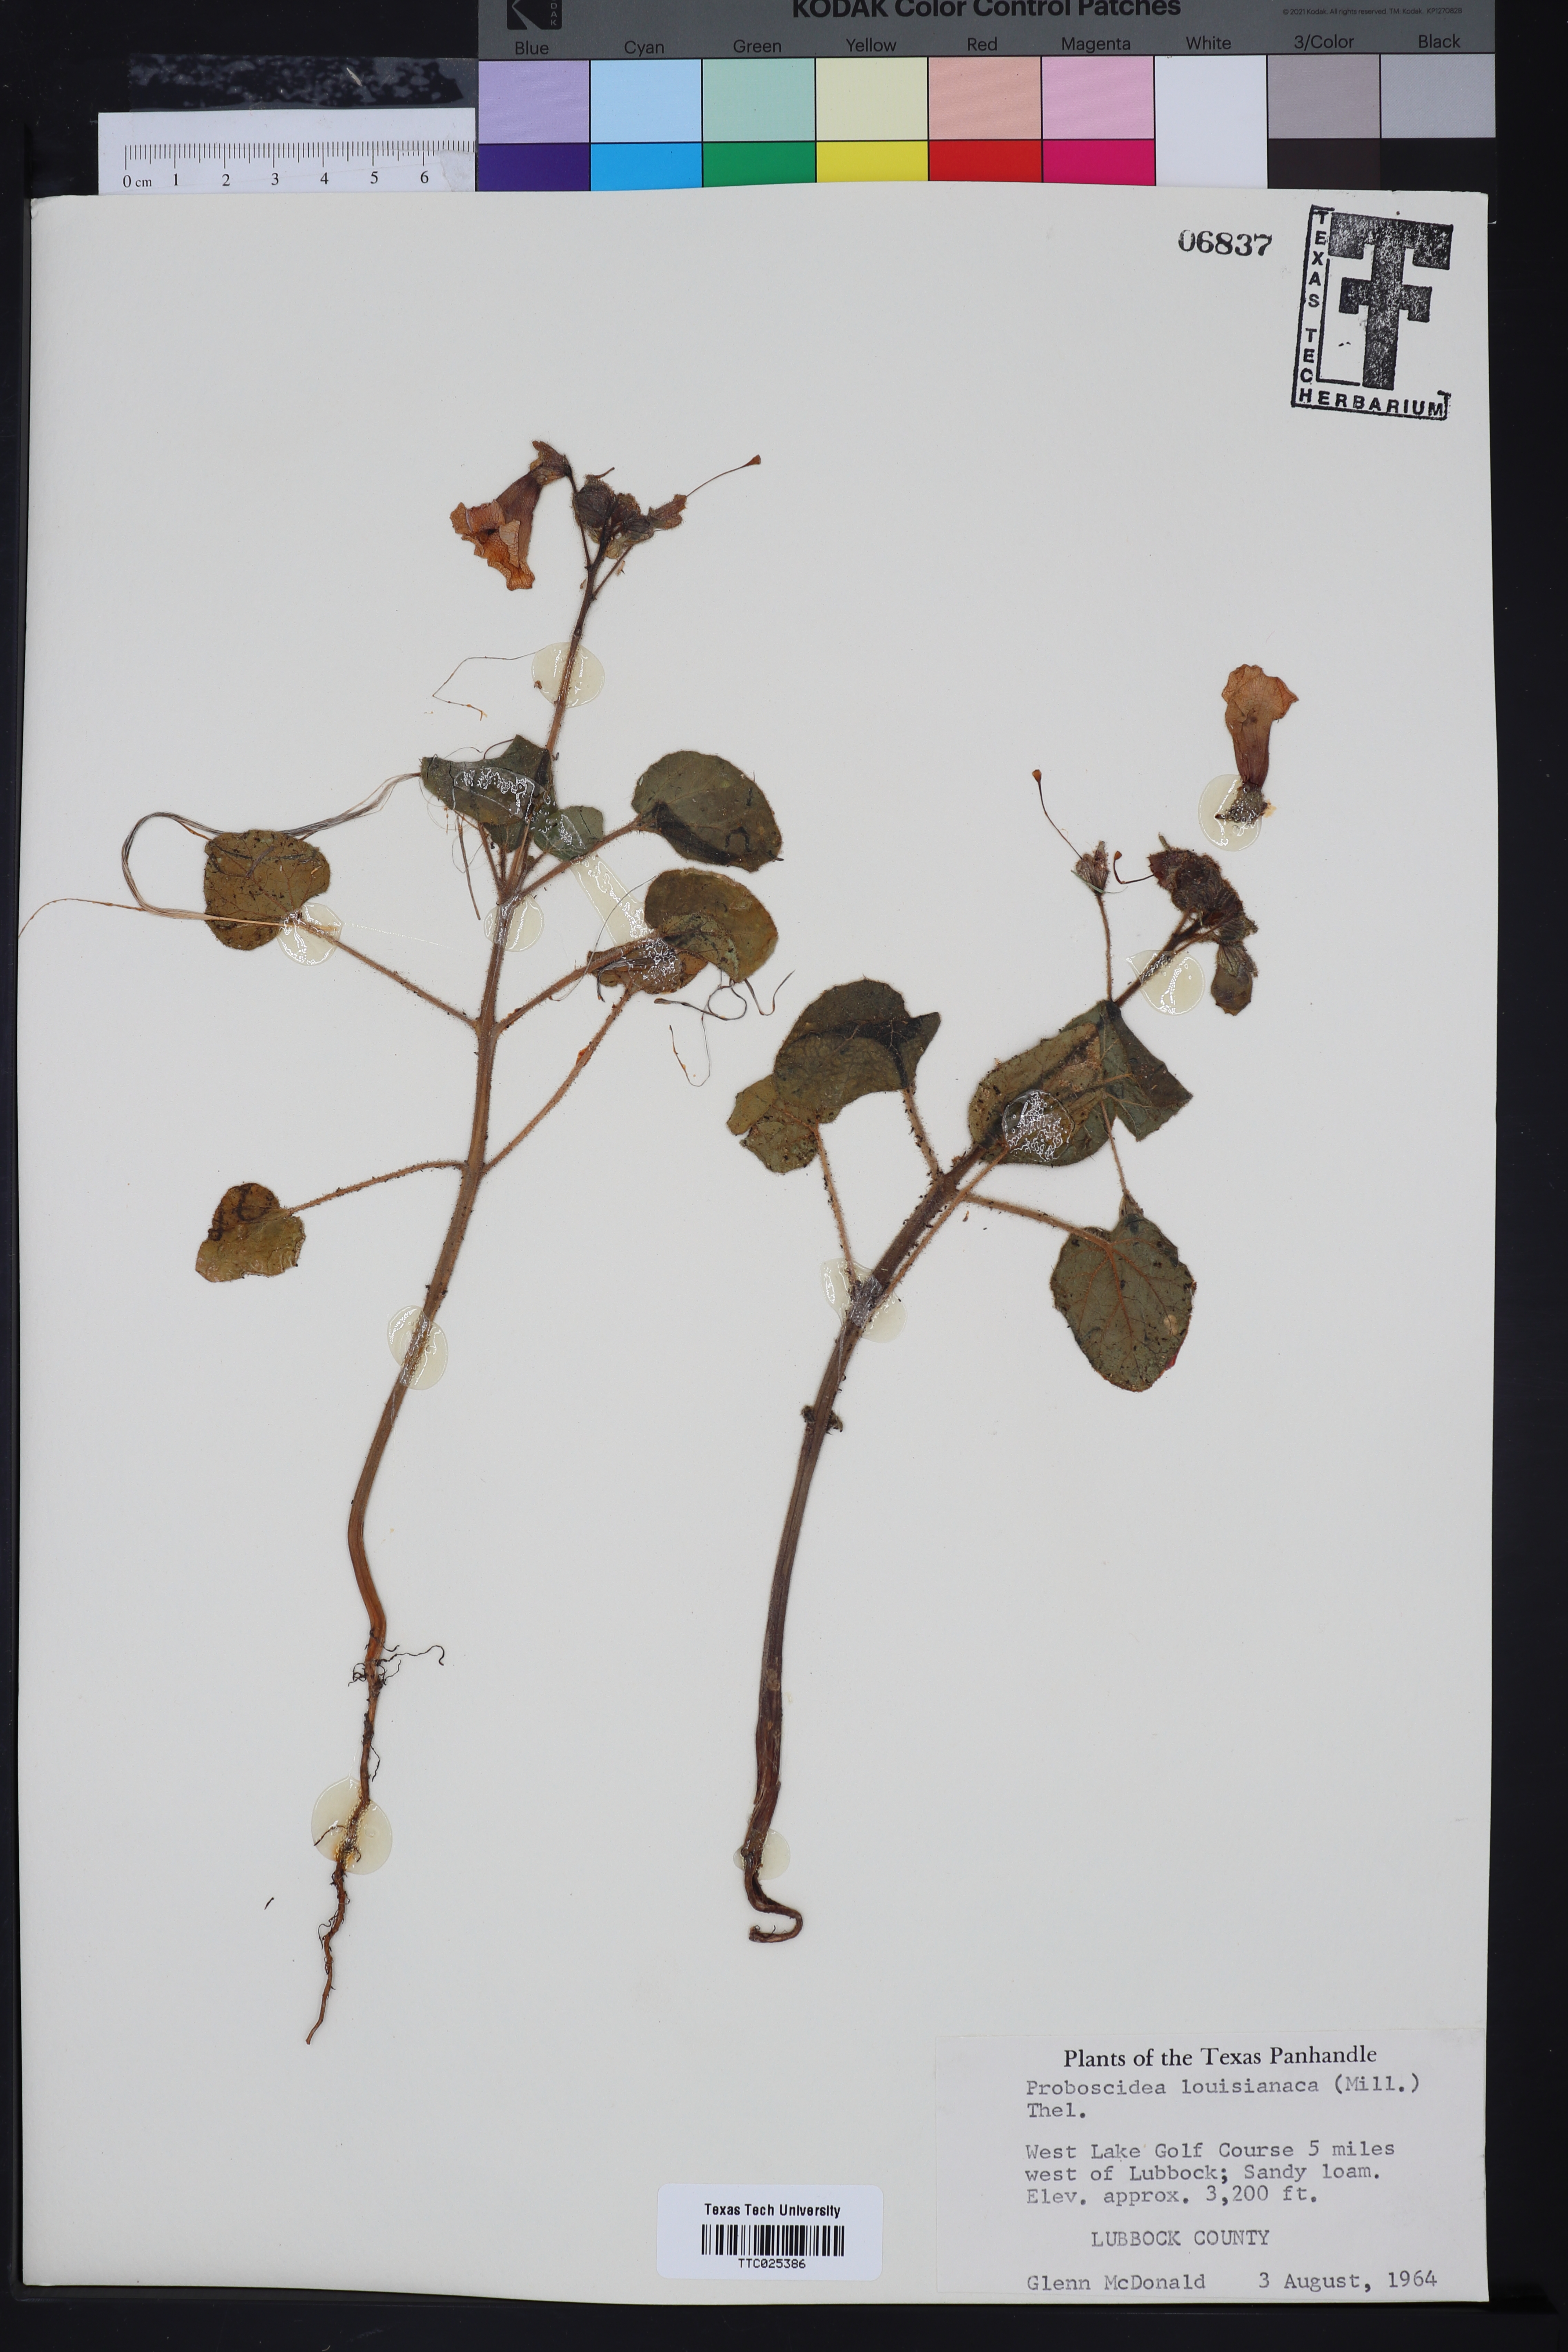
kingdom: Plantae
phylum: Tracheophyta
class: Magnoliopsida
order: Lamiales
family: Martyniaceae
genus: Proboscidea
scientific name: Proboscidea louisianica
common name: Elephant tusks
